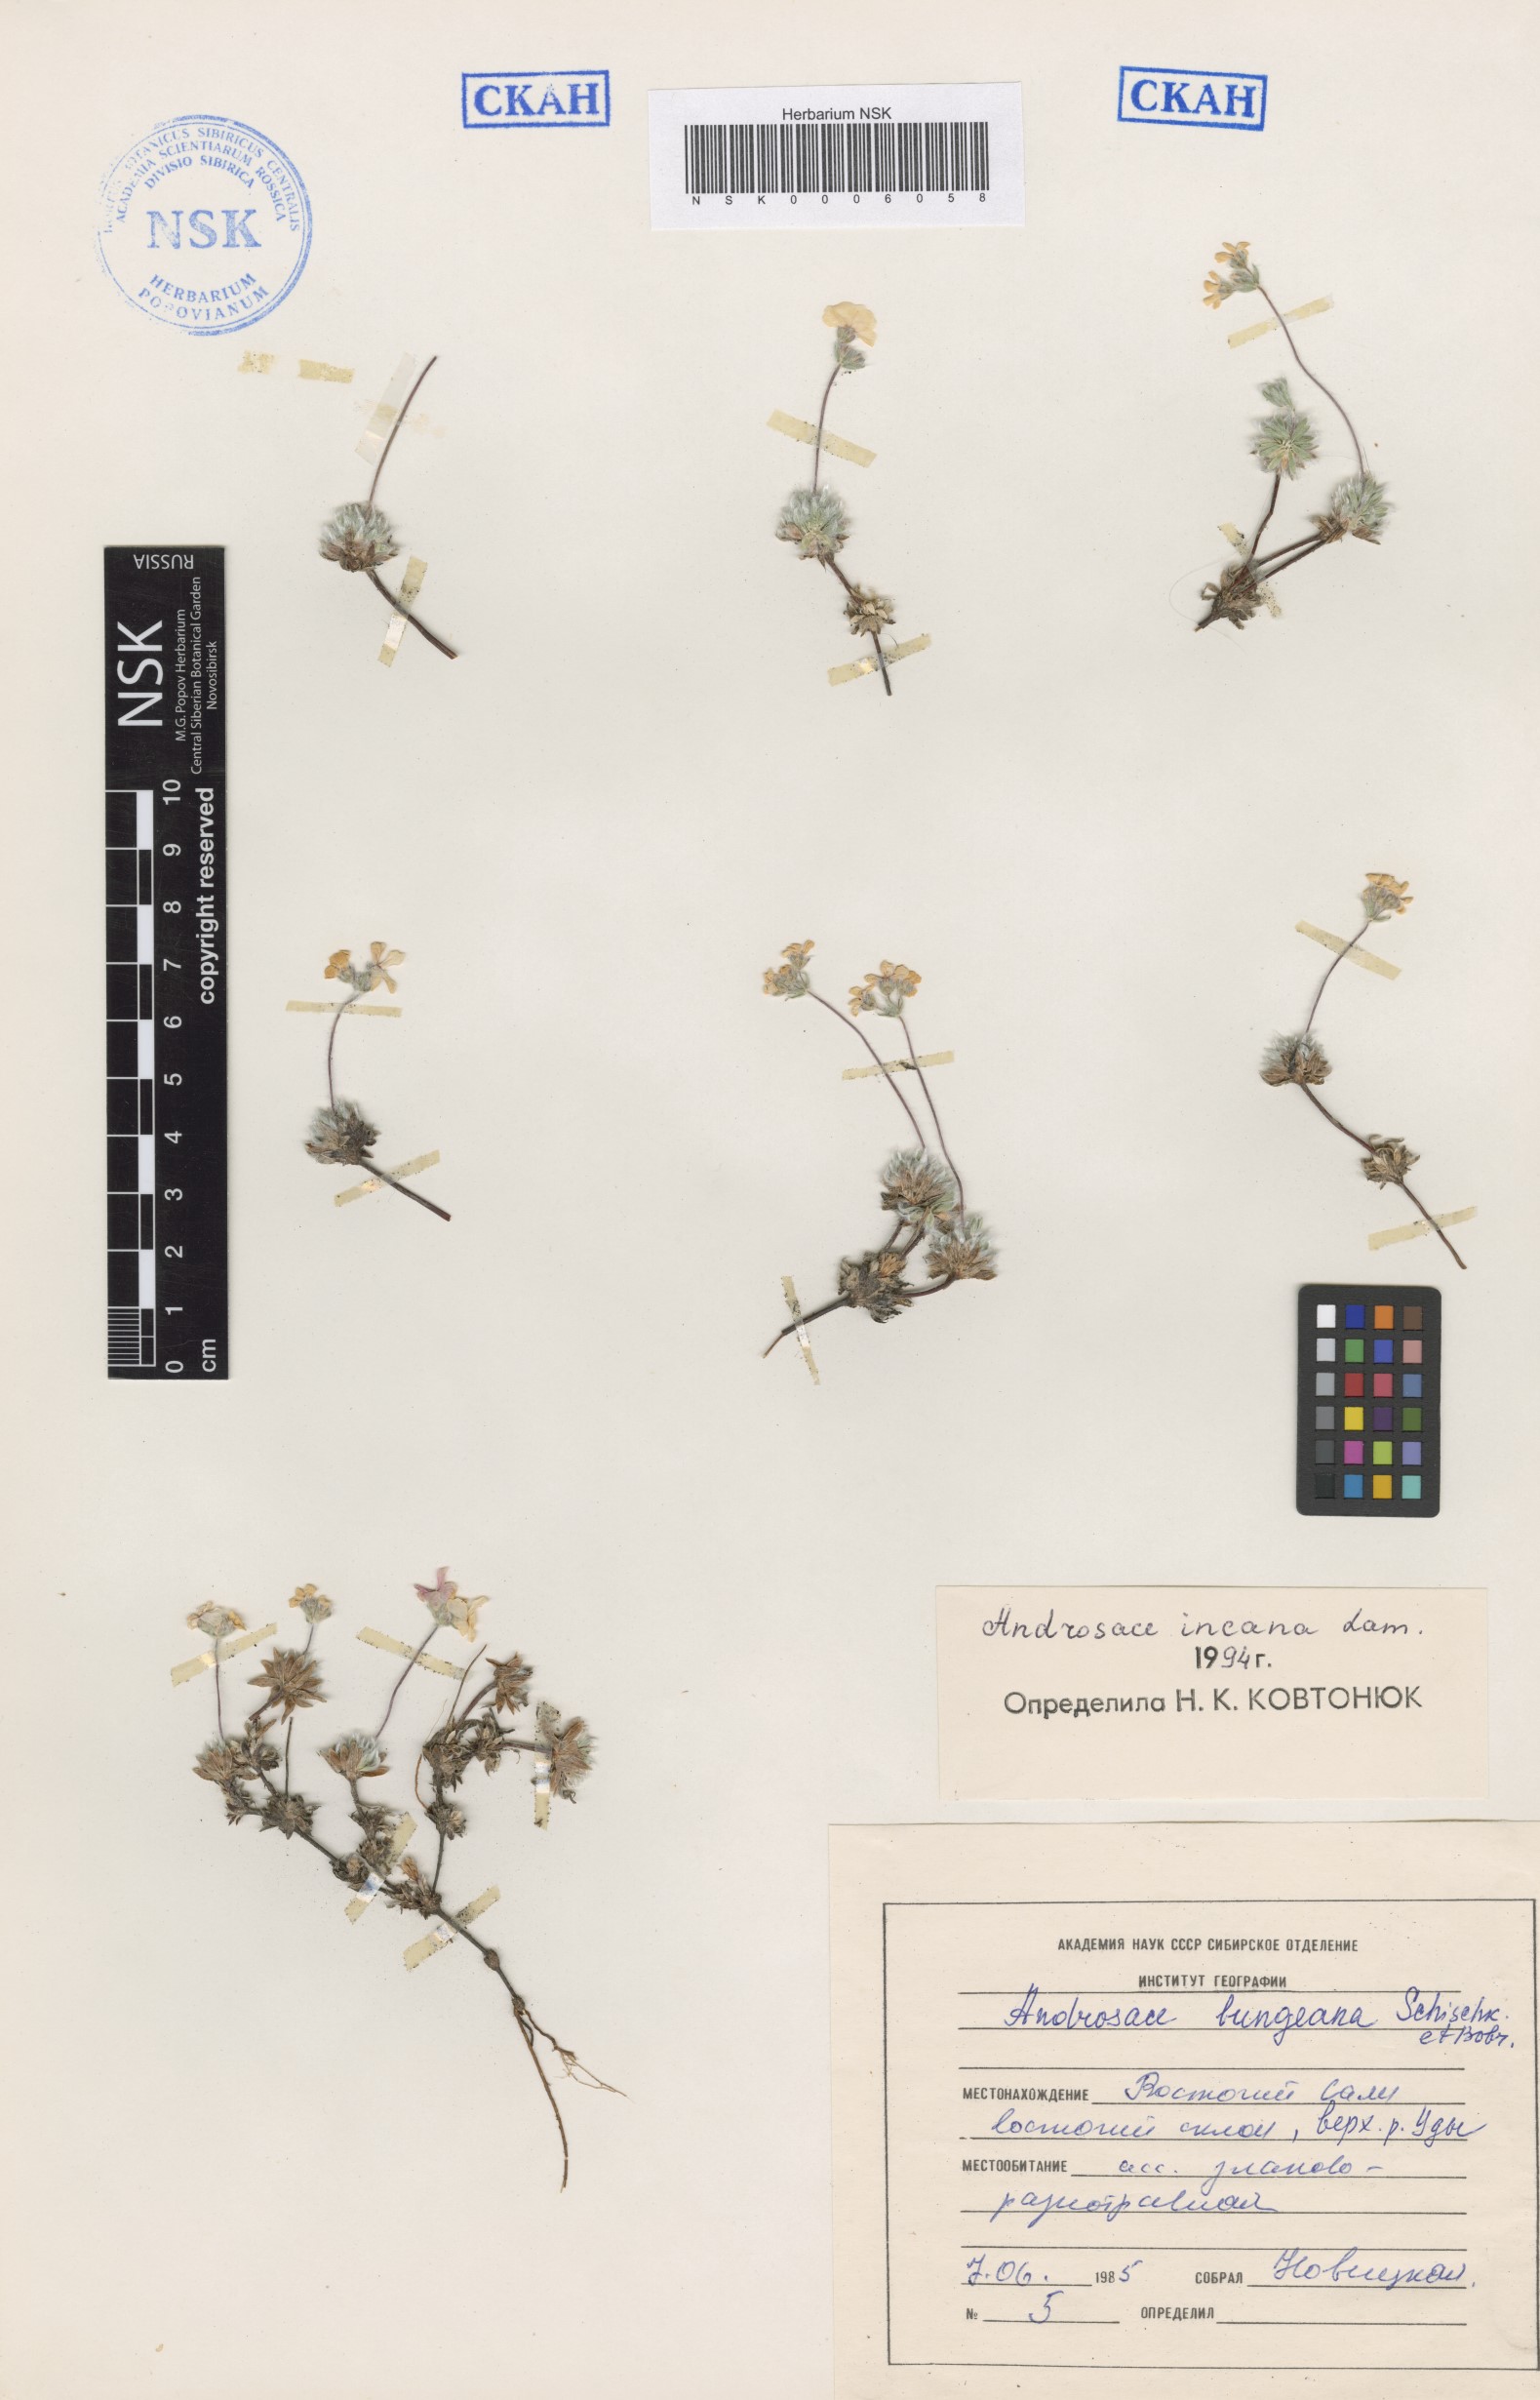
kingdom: Plantae
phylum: Tracheophyta
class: Magnoliopsida
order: Ericales
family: Primulaceae
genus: Androsace
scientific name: Androsace incana
